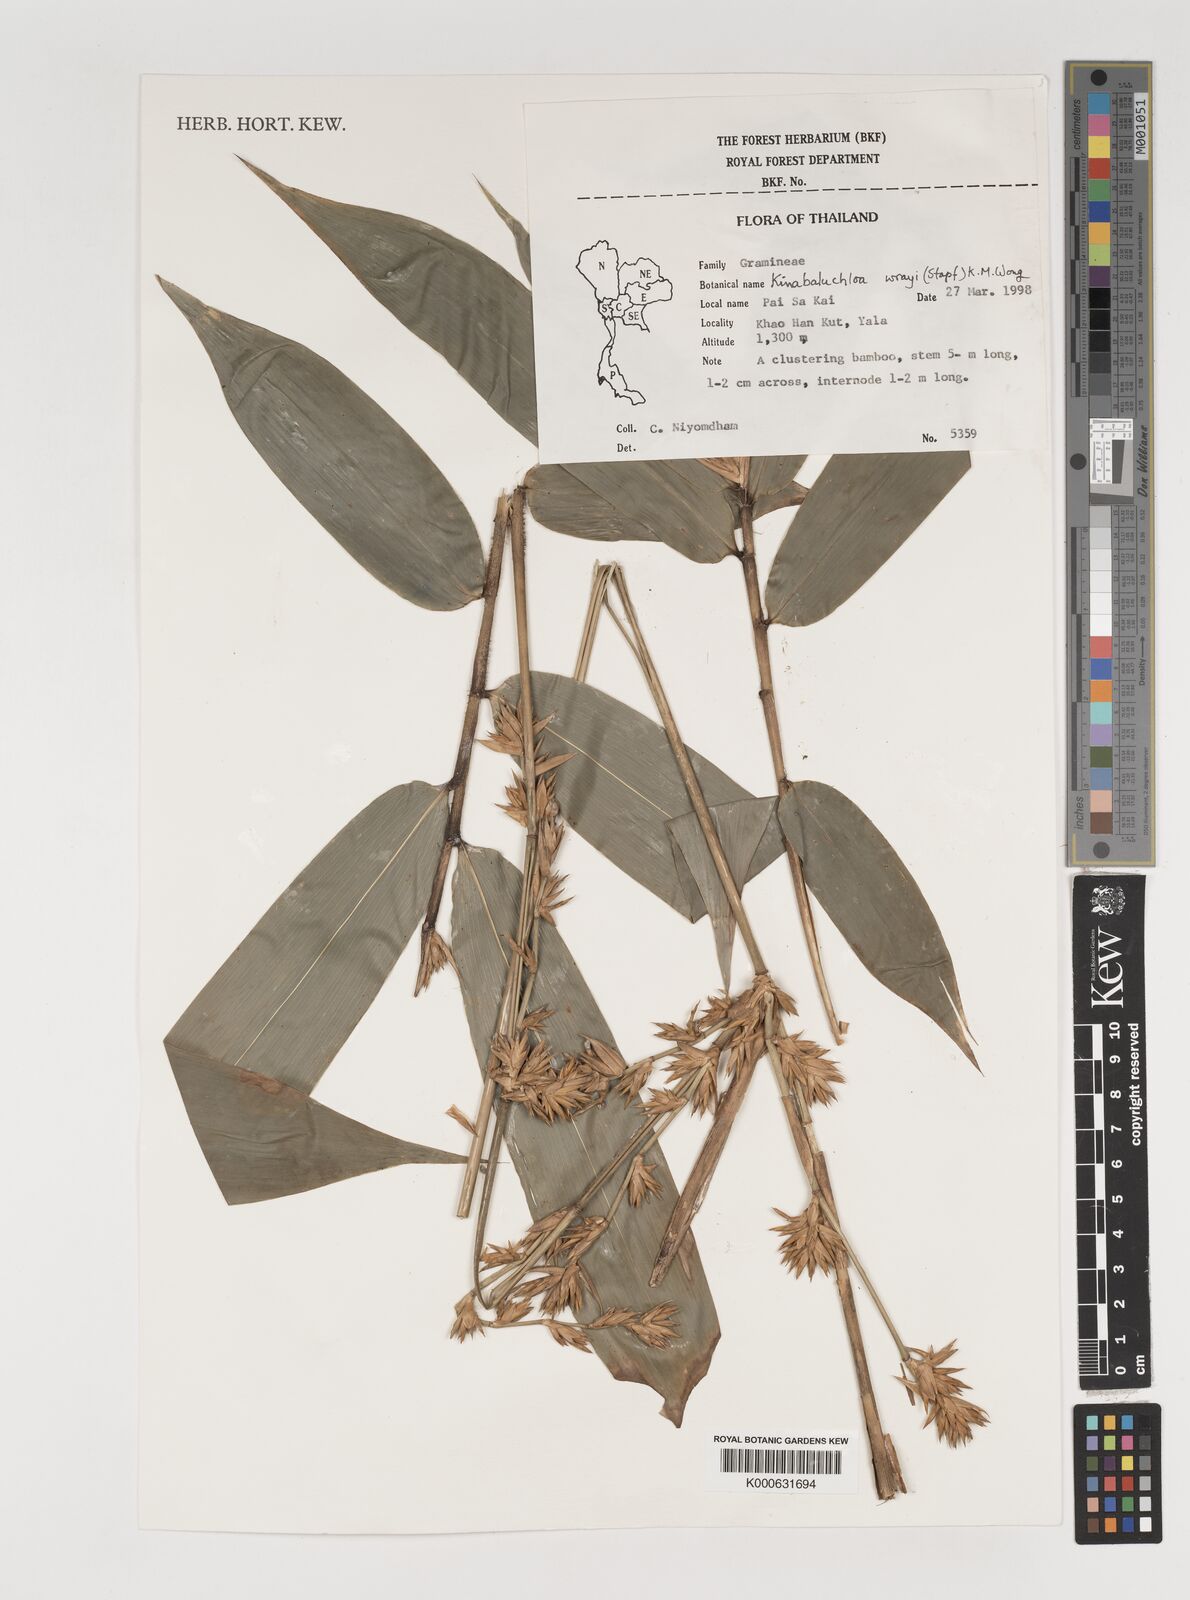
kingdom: Plantae
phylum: Tracheophyta
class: Liliopsida
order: Poales
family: Poaceae
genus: Kinabaluchloa
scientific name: Kinabaluchloa wrayi
